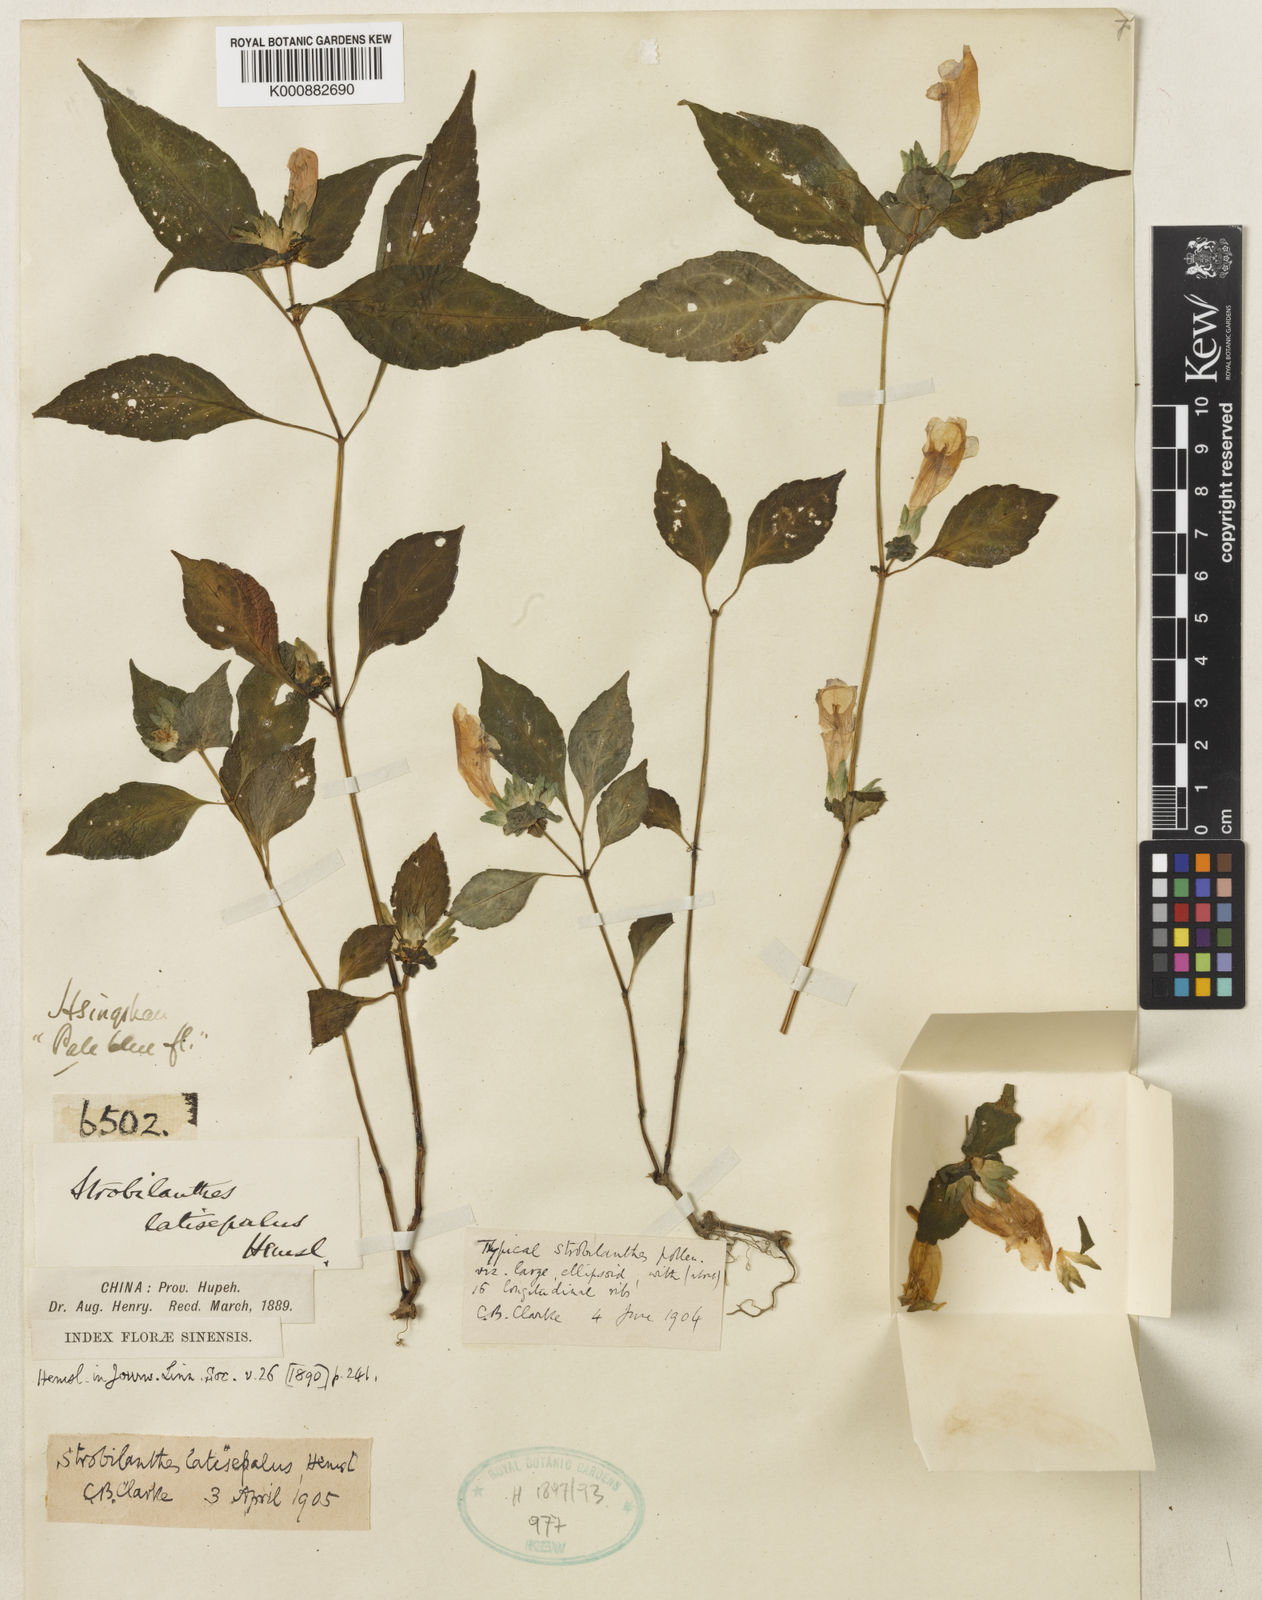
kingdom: Plantae
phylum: Tracheophyta
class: Magnoliopsida
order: Lamiales
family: Acanthaceae
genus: Strobilanthes
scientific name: Strobilanthes wallichii
